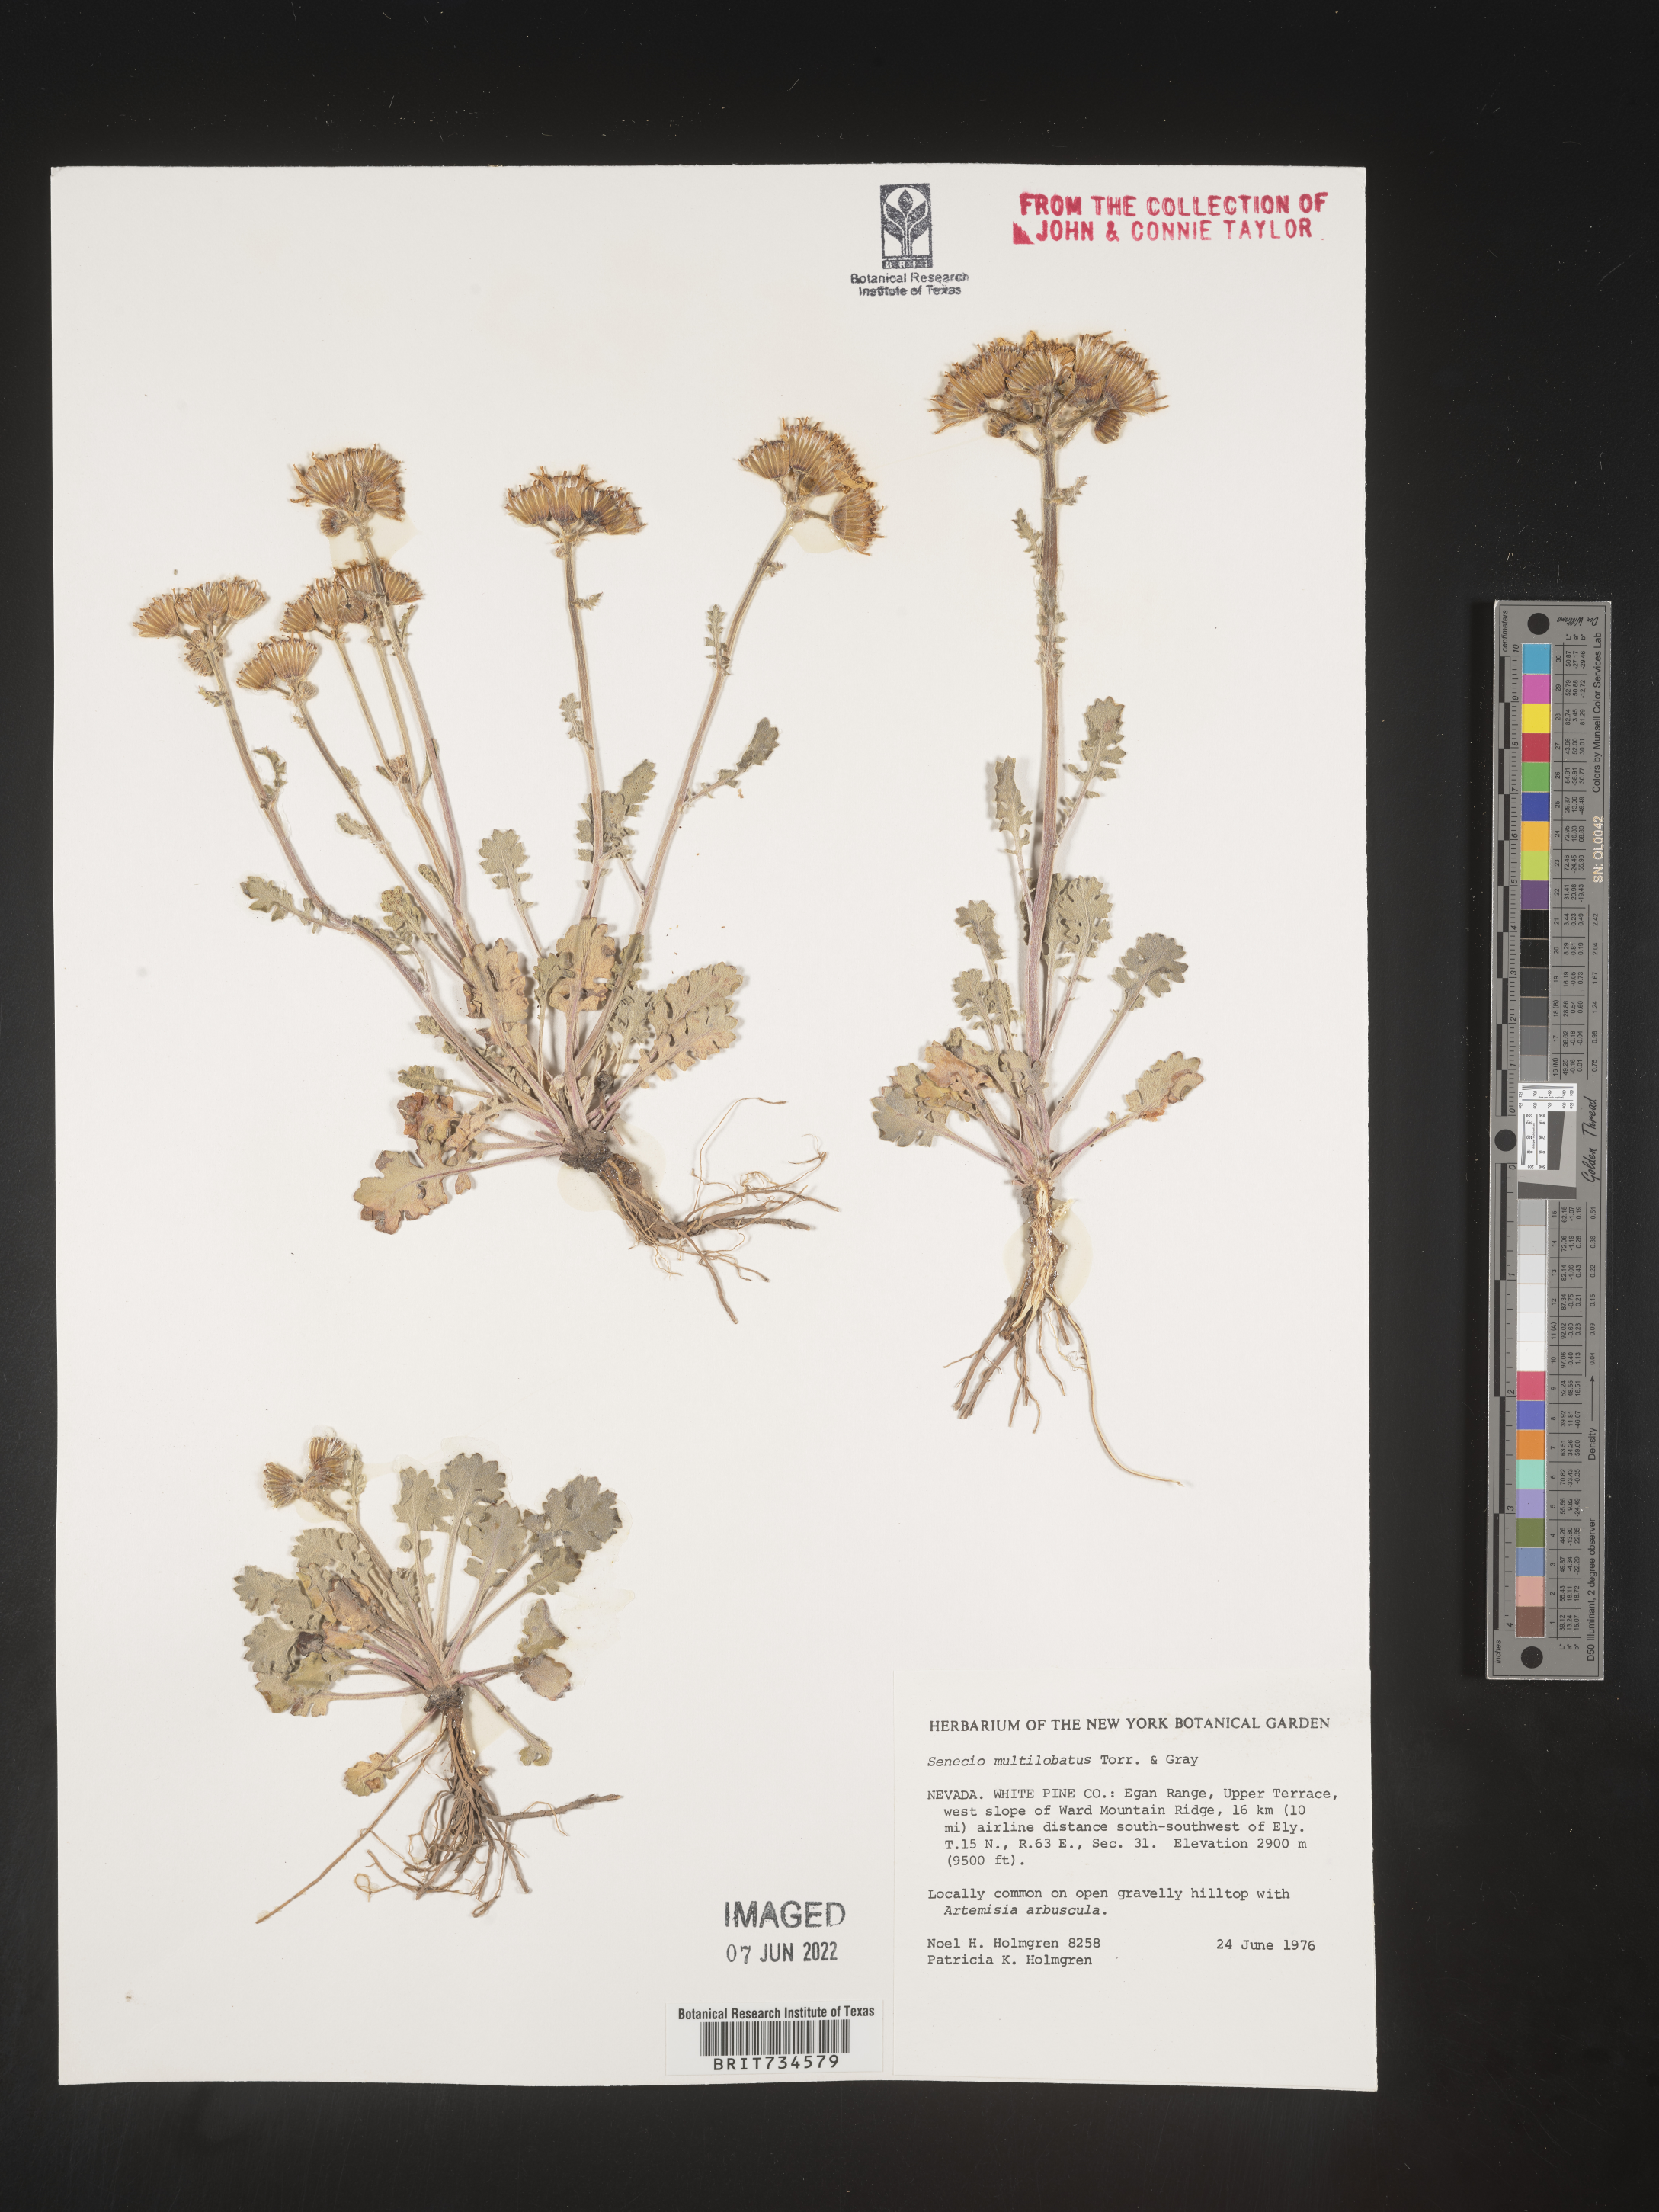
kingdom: Plantae
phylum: Tracheophyta
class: Magnoliopsida
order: Asterales
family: Asteraceae
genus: Packera
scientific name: Packera multilobata
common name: Lobe-leaf groundsel
